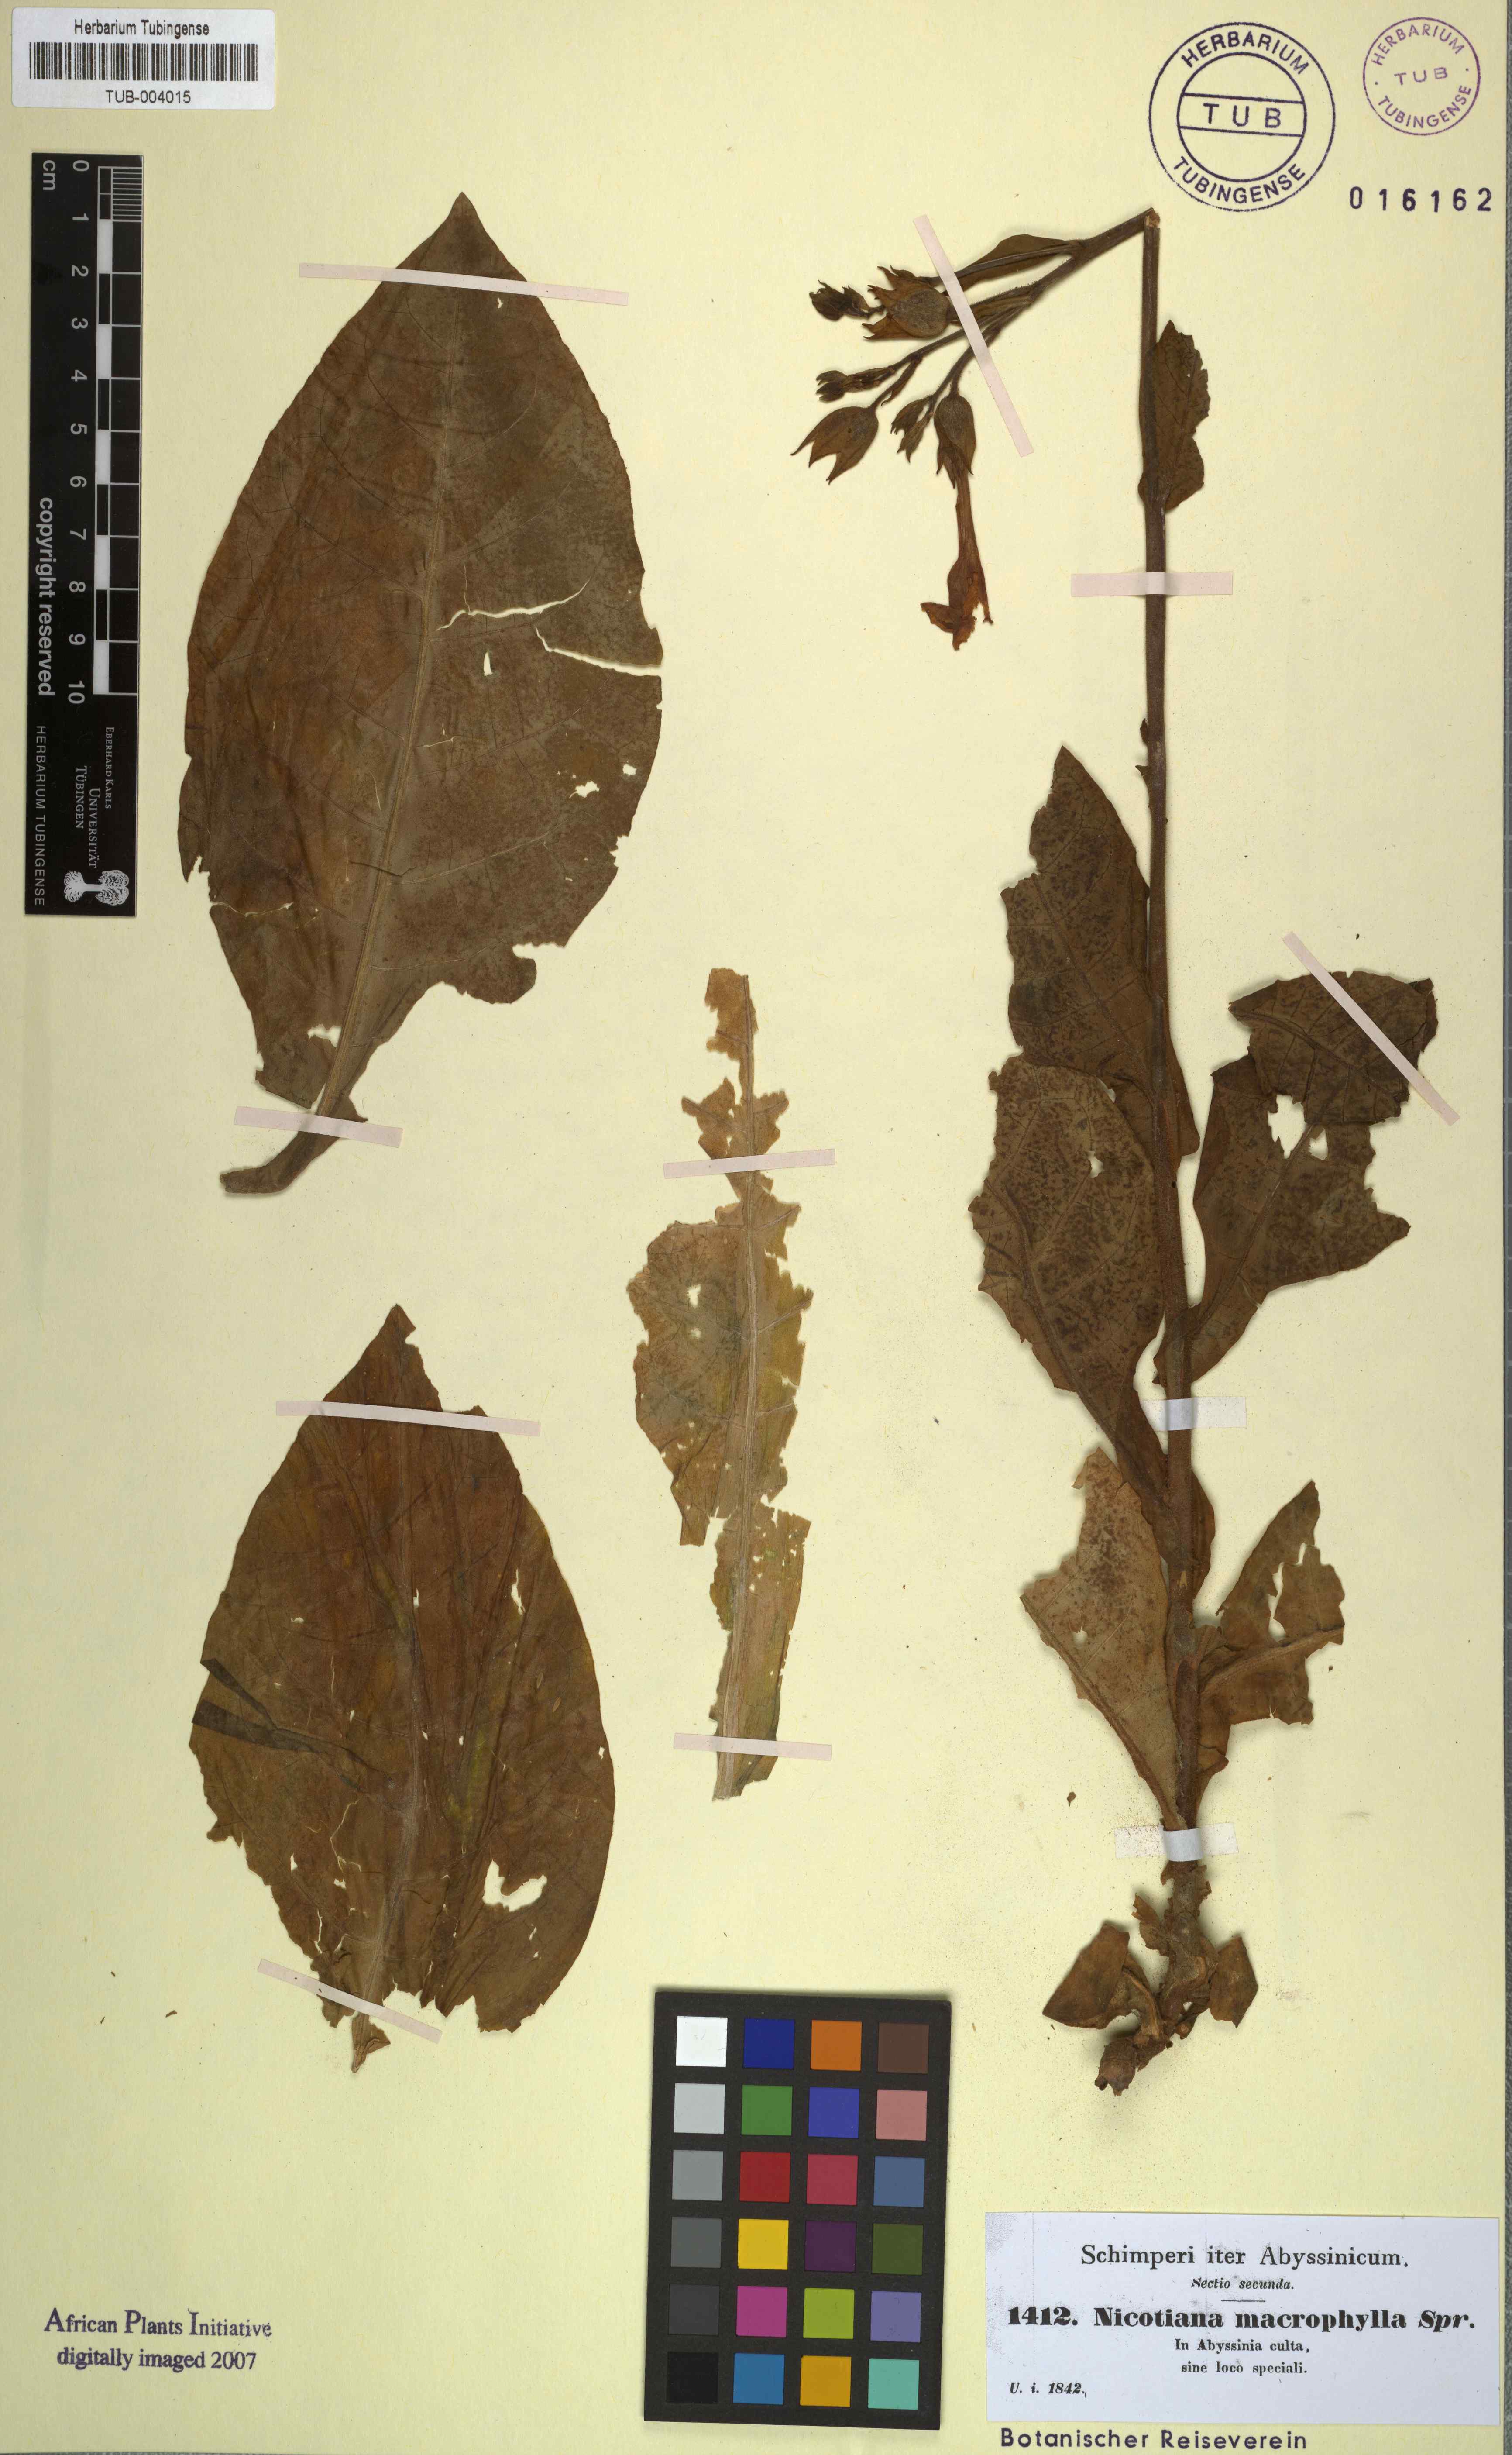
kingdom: Plantae
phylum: Tracheophyta
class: Magnoliopsida
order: Solanales
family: Solanaceae
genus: Nicotiana
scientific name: Nicotiana tabacum
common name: Tobacco
